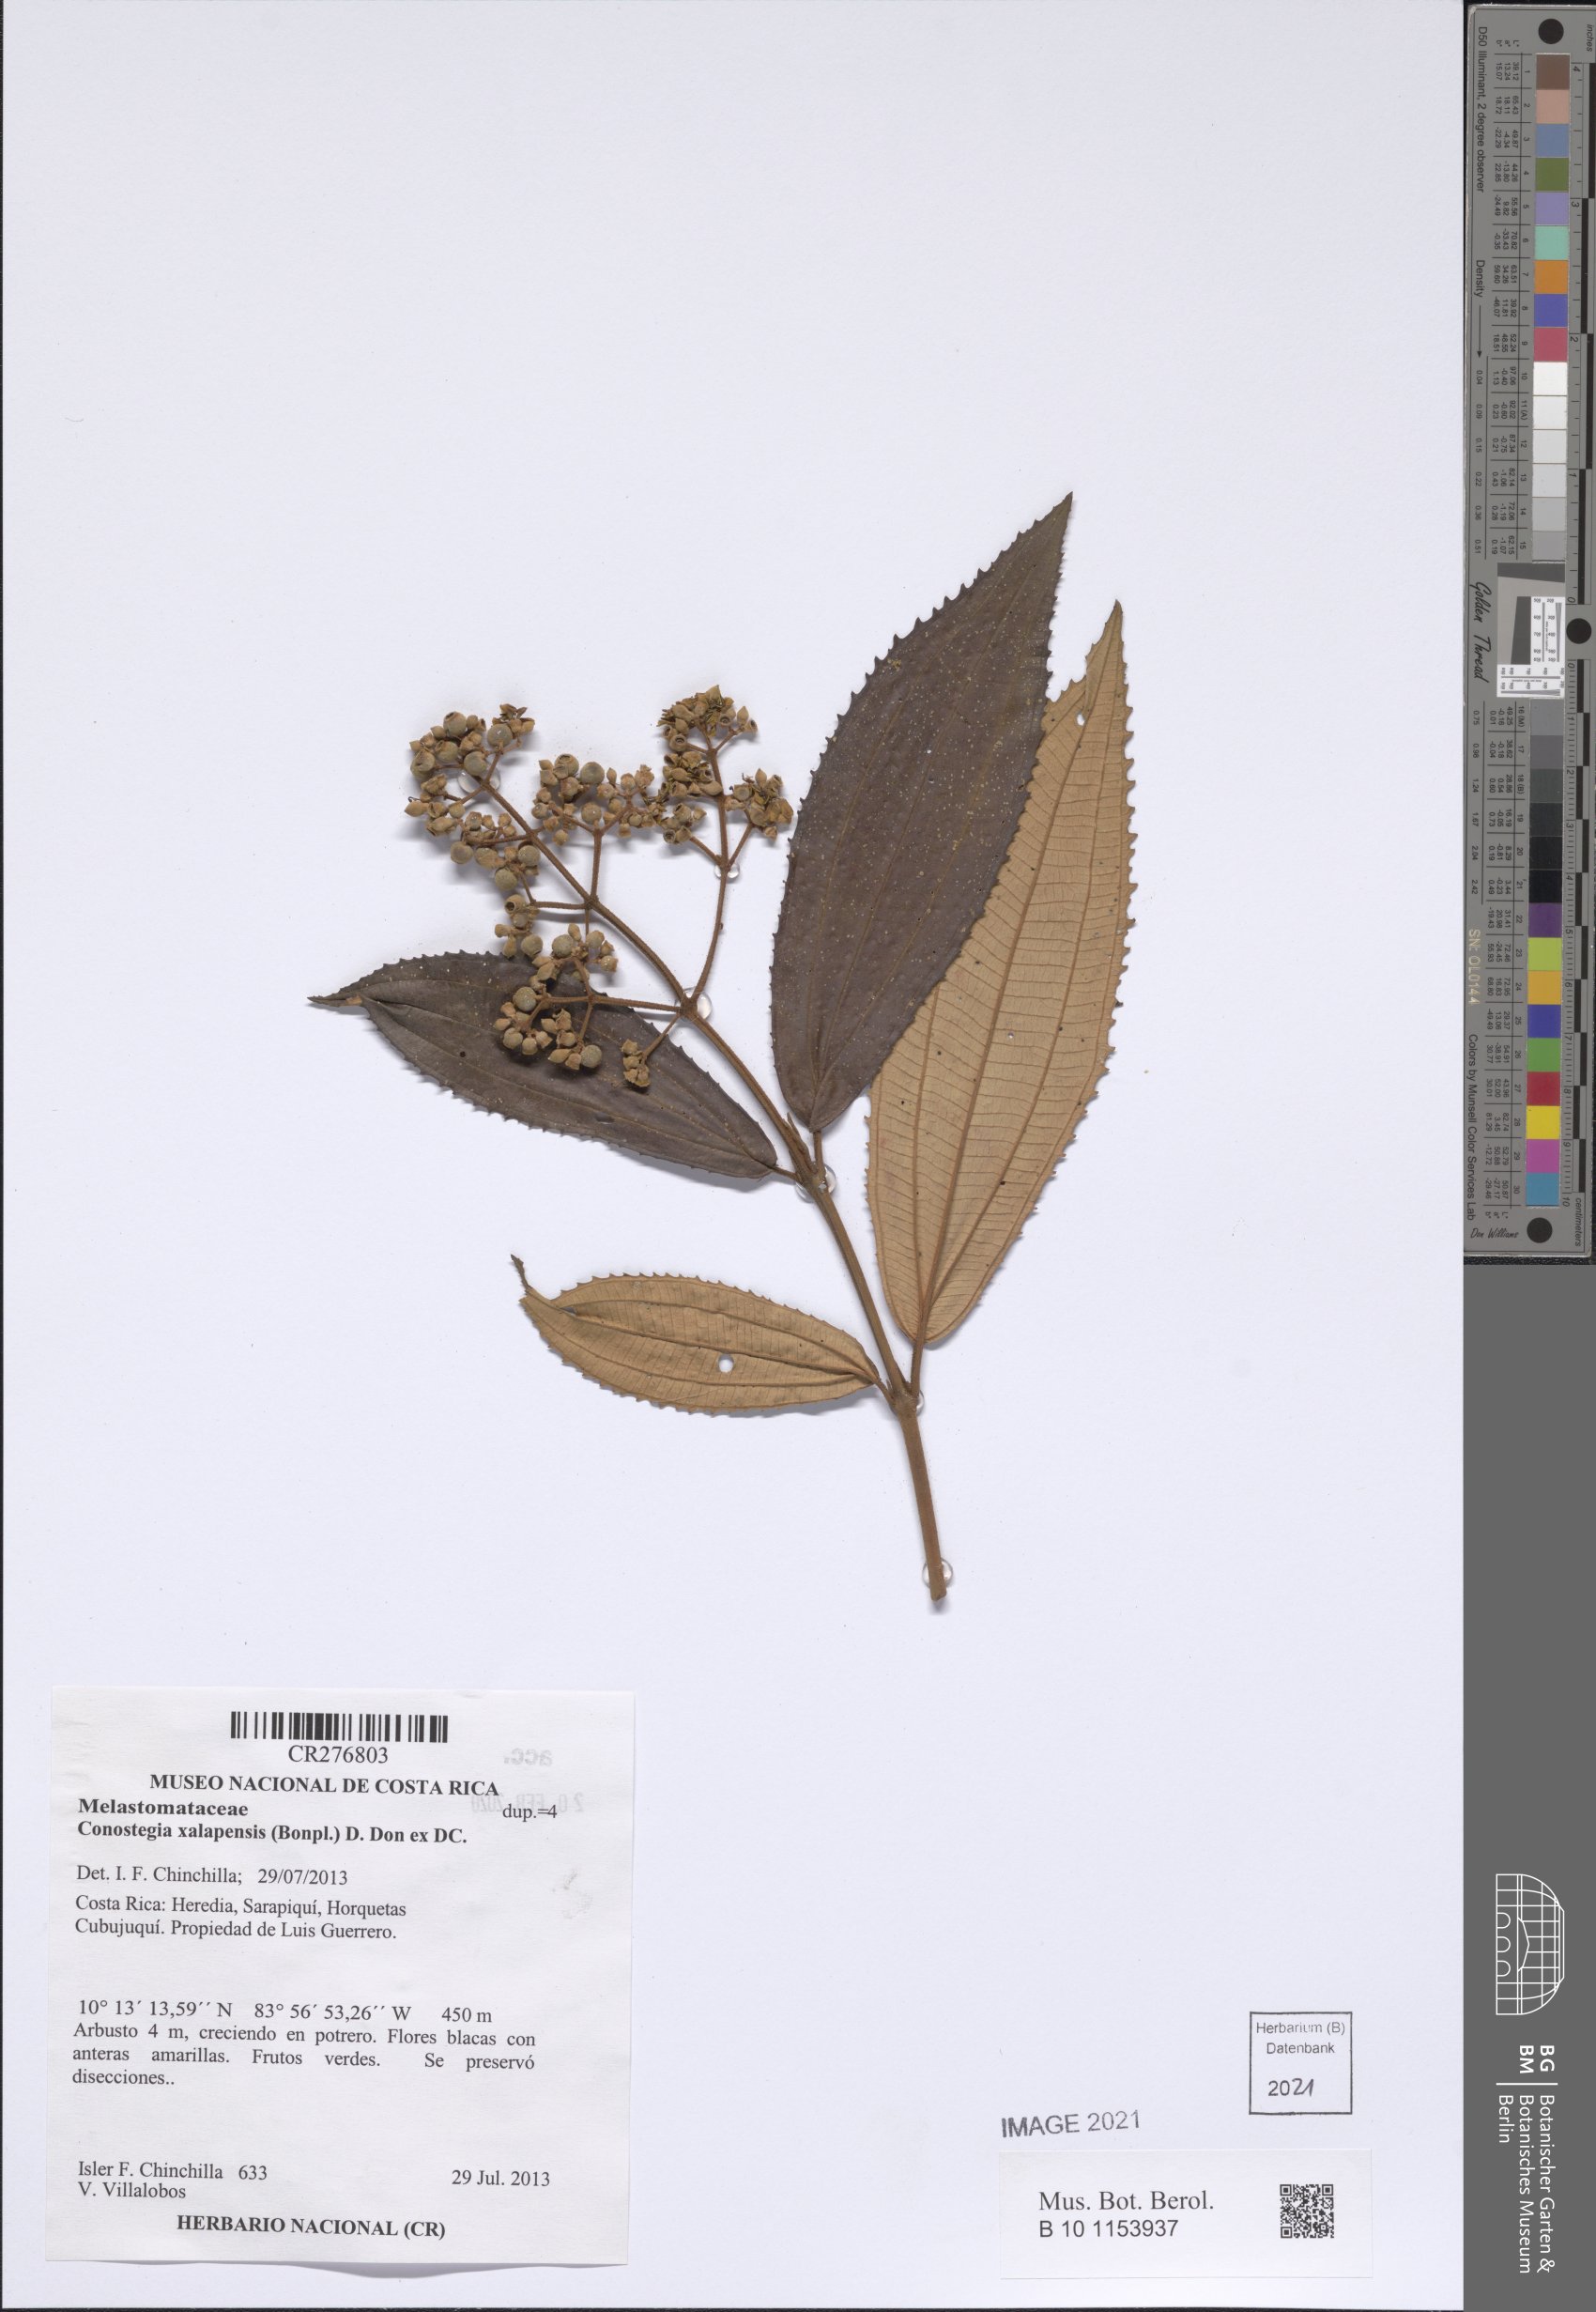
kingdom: Plantae
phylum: Tracheophyta
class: Magnoliopsida
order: Myrtales
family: Melastomataceae
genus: Miconia
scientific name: Miconia xalapensis
